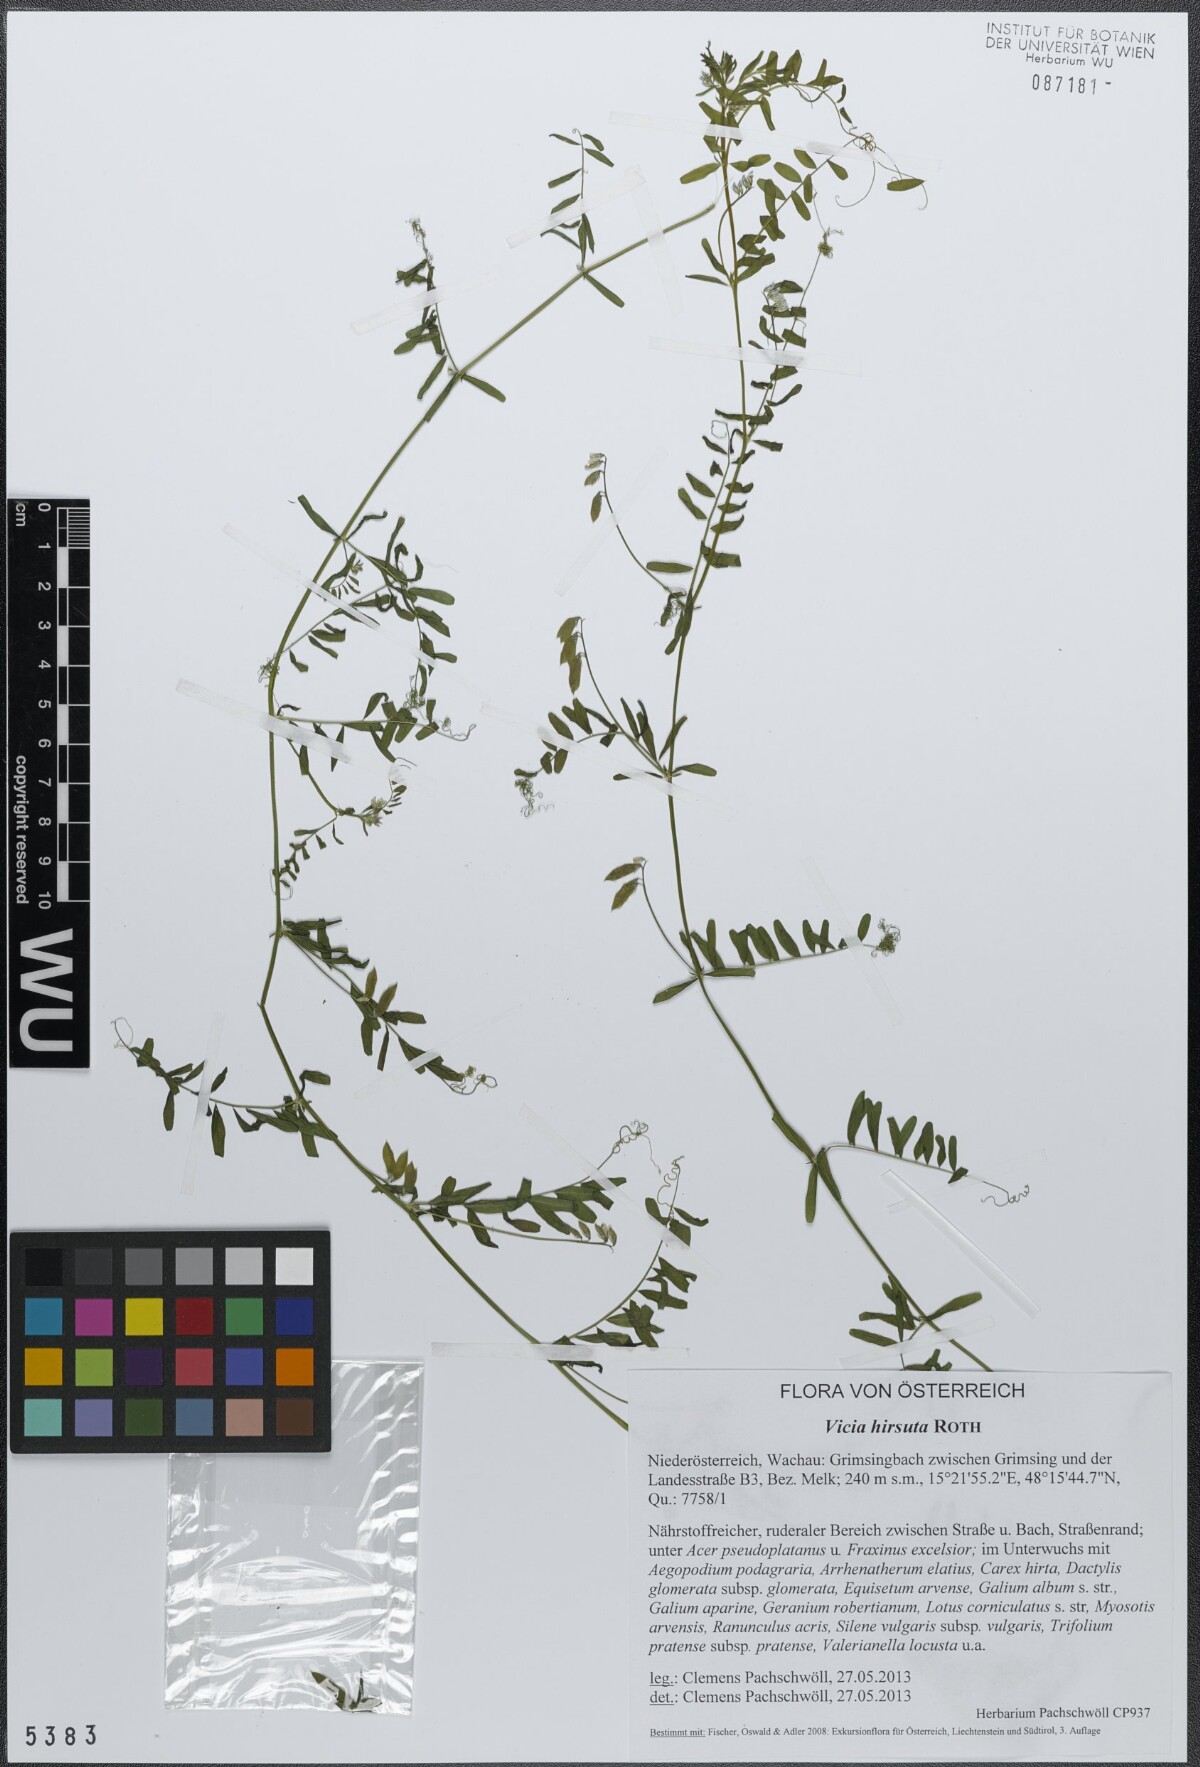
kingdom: Plantae
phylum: Tracheophyta
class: Magnoliopsida
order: Fabales
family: Fabaceae
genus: Vicia
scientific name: Vicia hirsuta
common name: Tiny vetch
